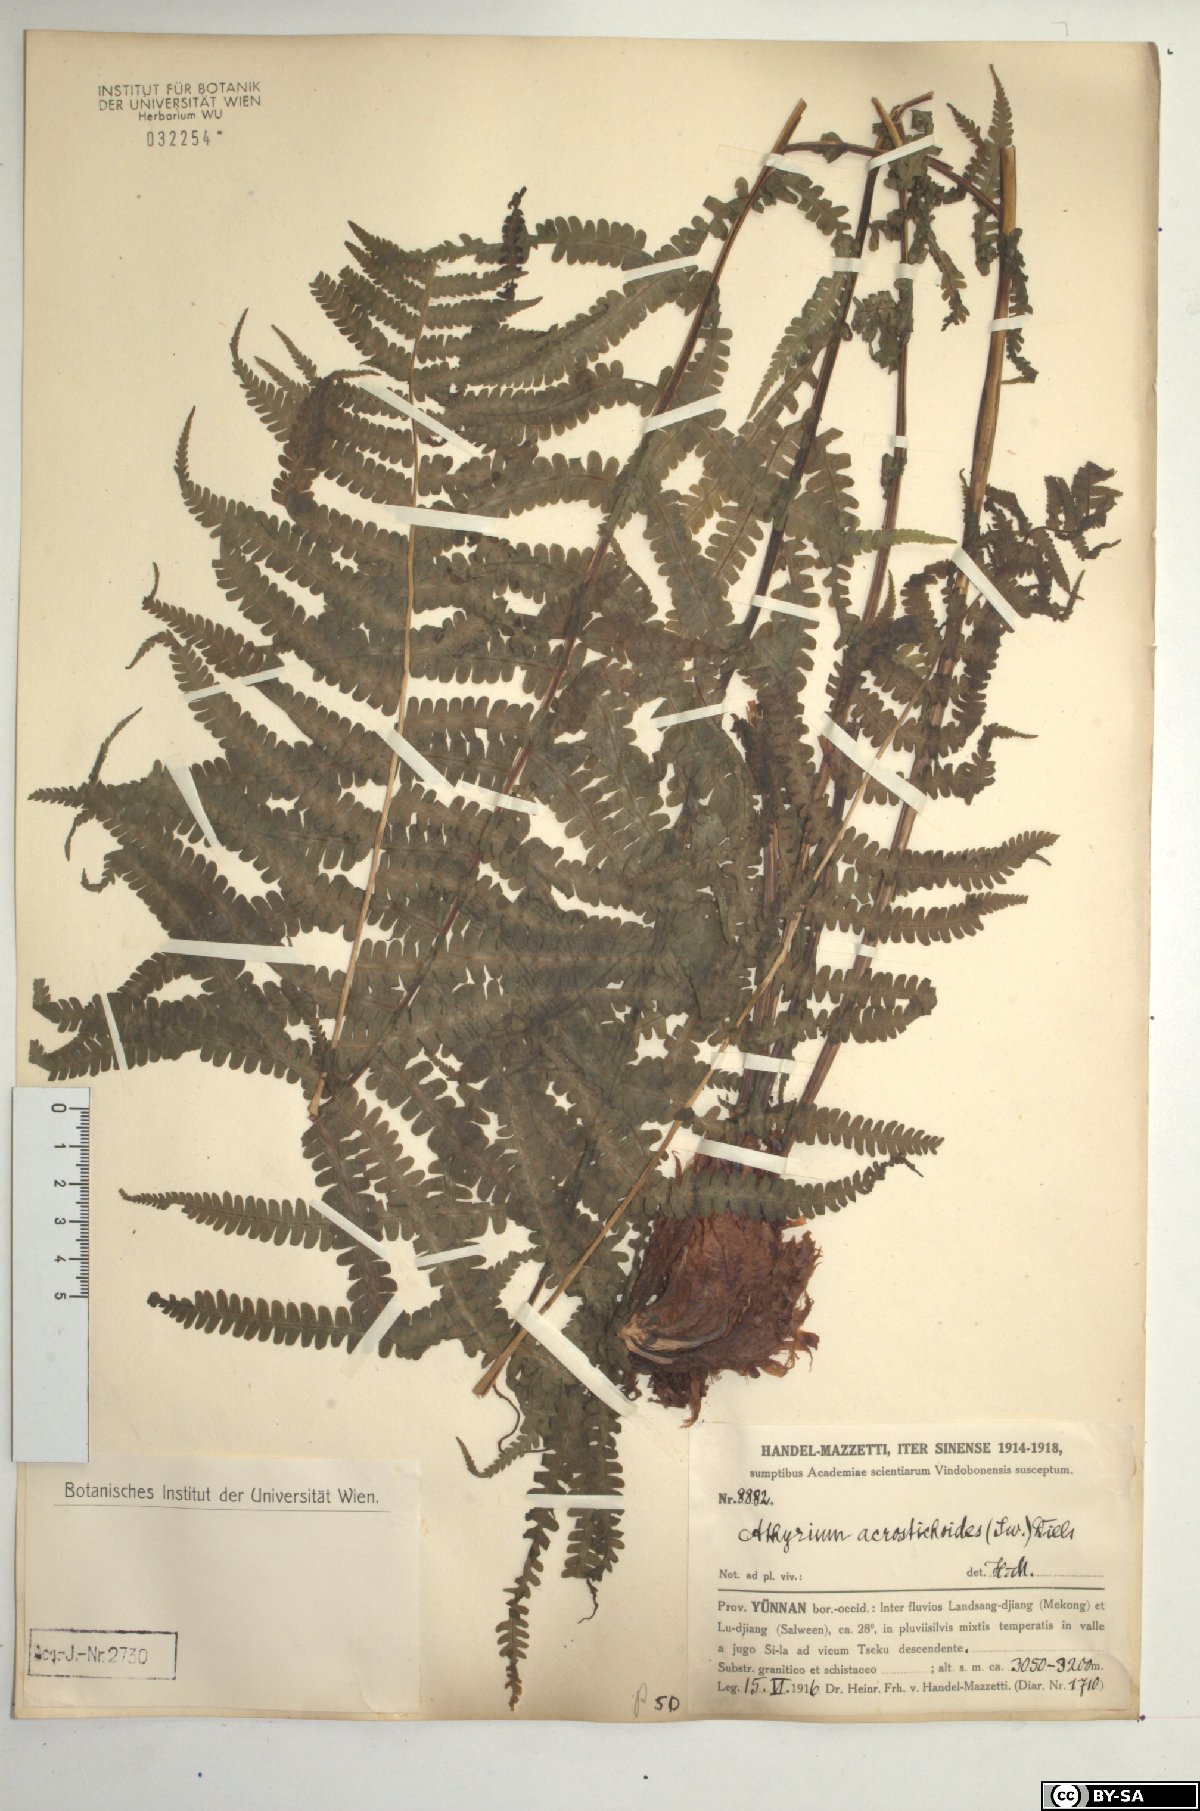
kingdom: Plantae
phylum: Tracheophyta
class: Polypodiopsida
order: Polypodiales
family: Athyriaceae
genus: Deparia
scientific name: Deparia acrostichoides
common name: Silver false spleenwort
